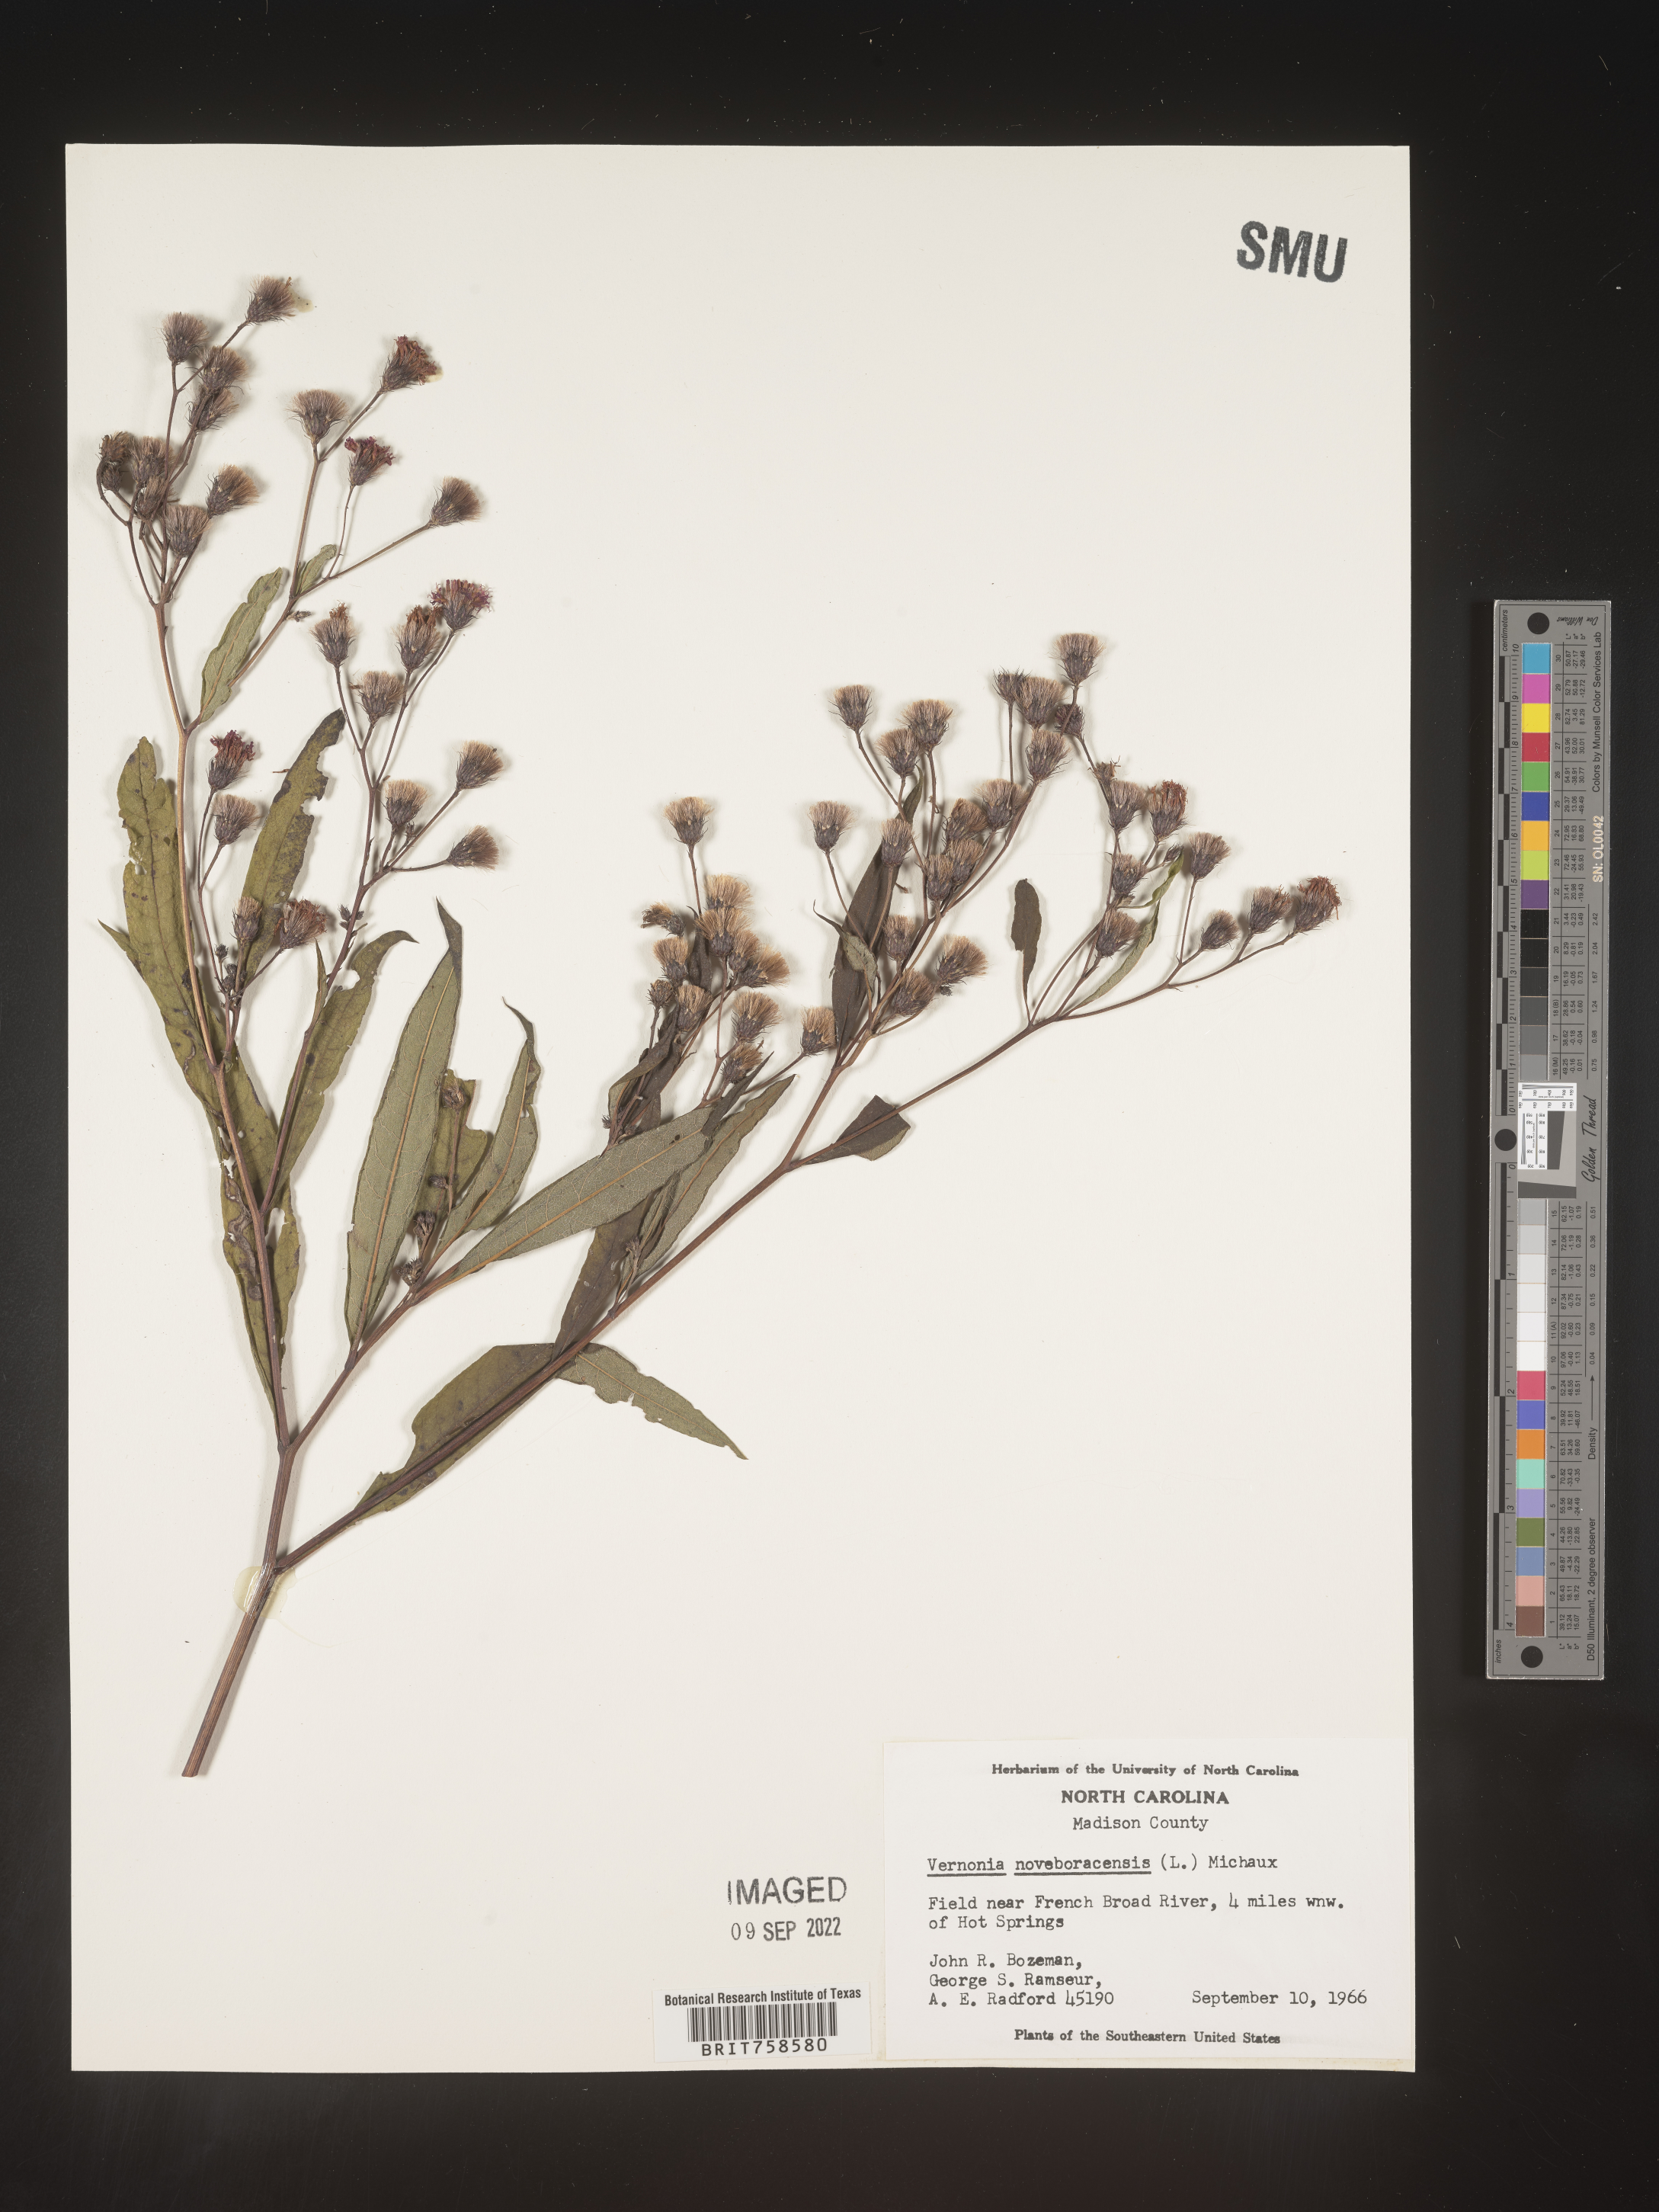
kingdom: Plantae
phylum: Tracheophyta
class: Magnoliopsida
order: Asterales
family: Asteraceae
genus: Vernonia
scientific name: Vernonia noveboracensis
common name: New york ironweed
